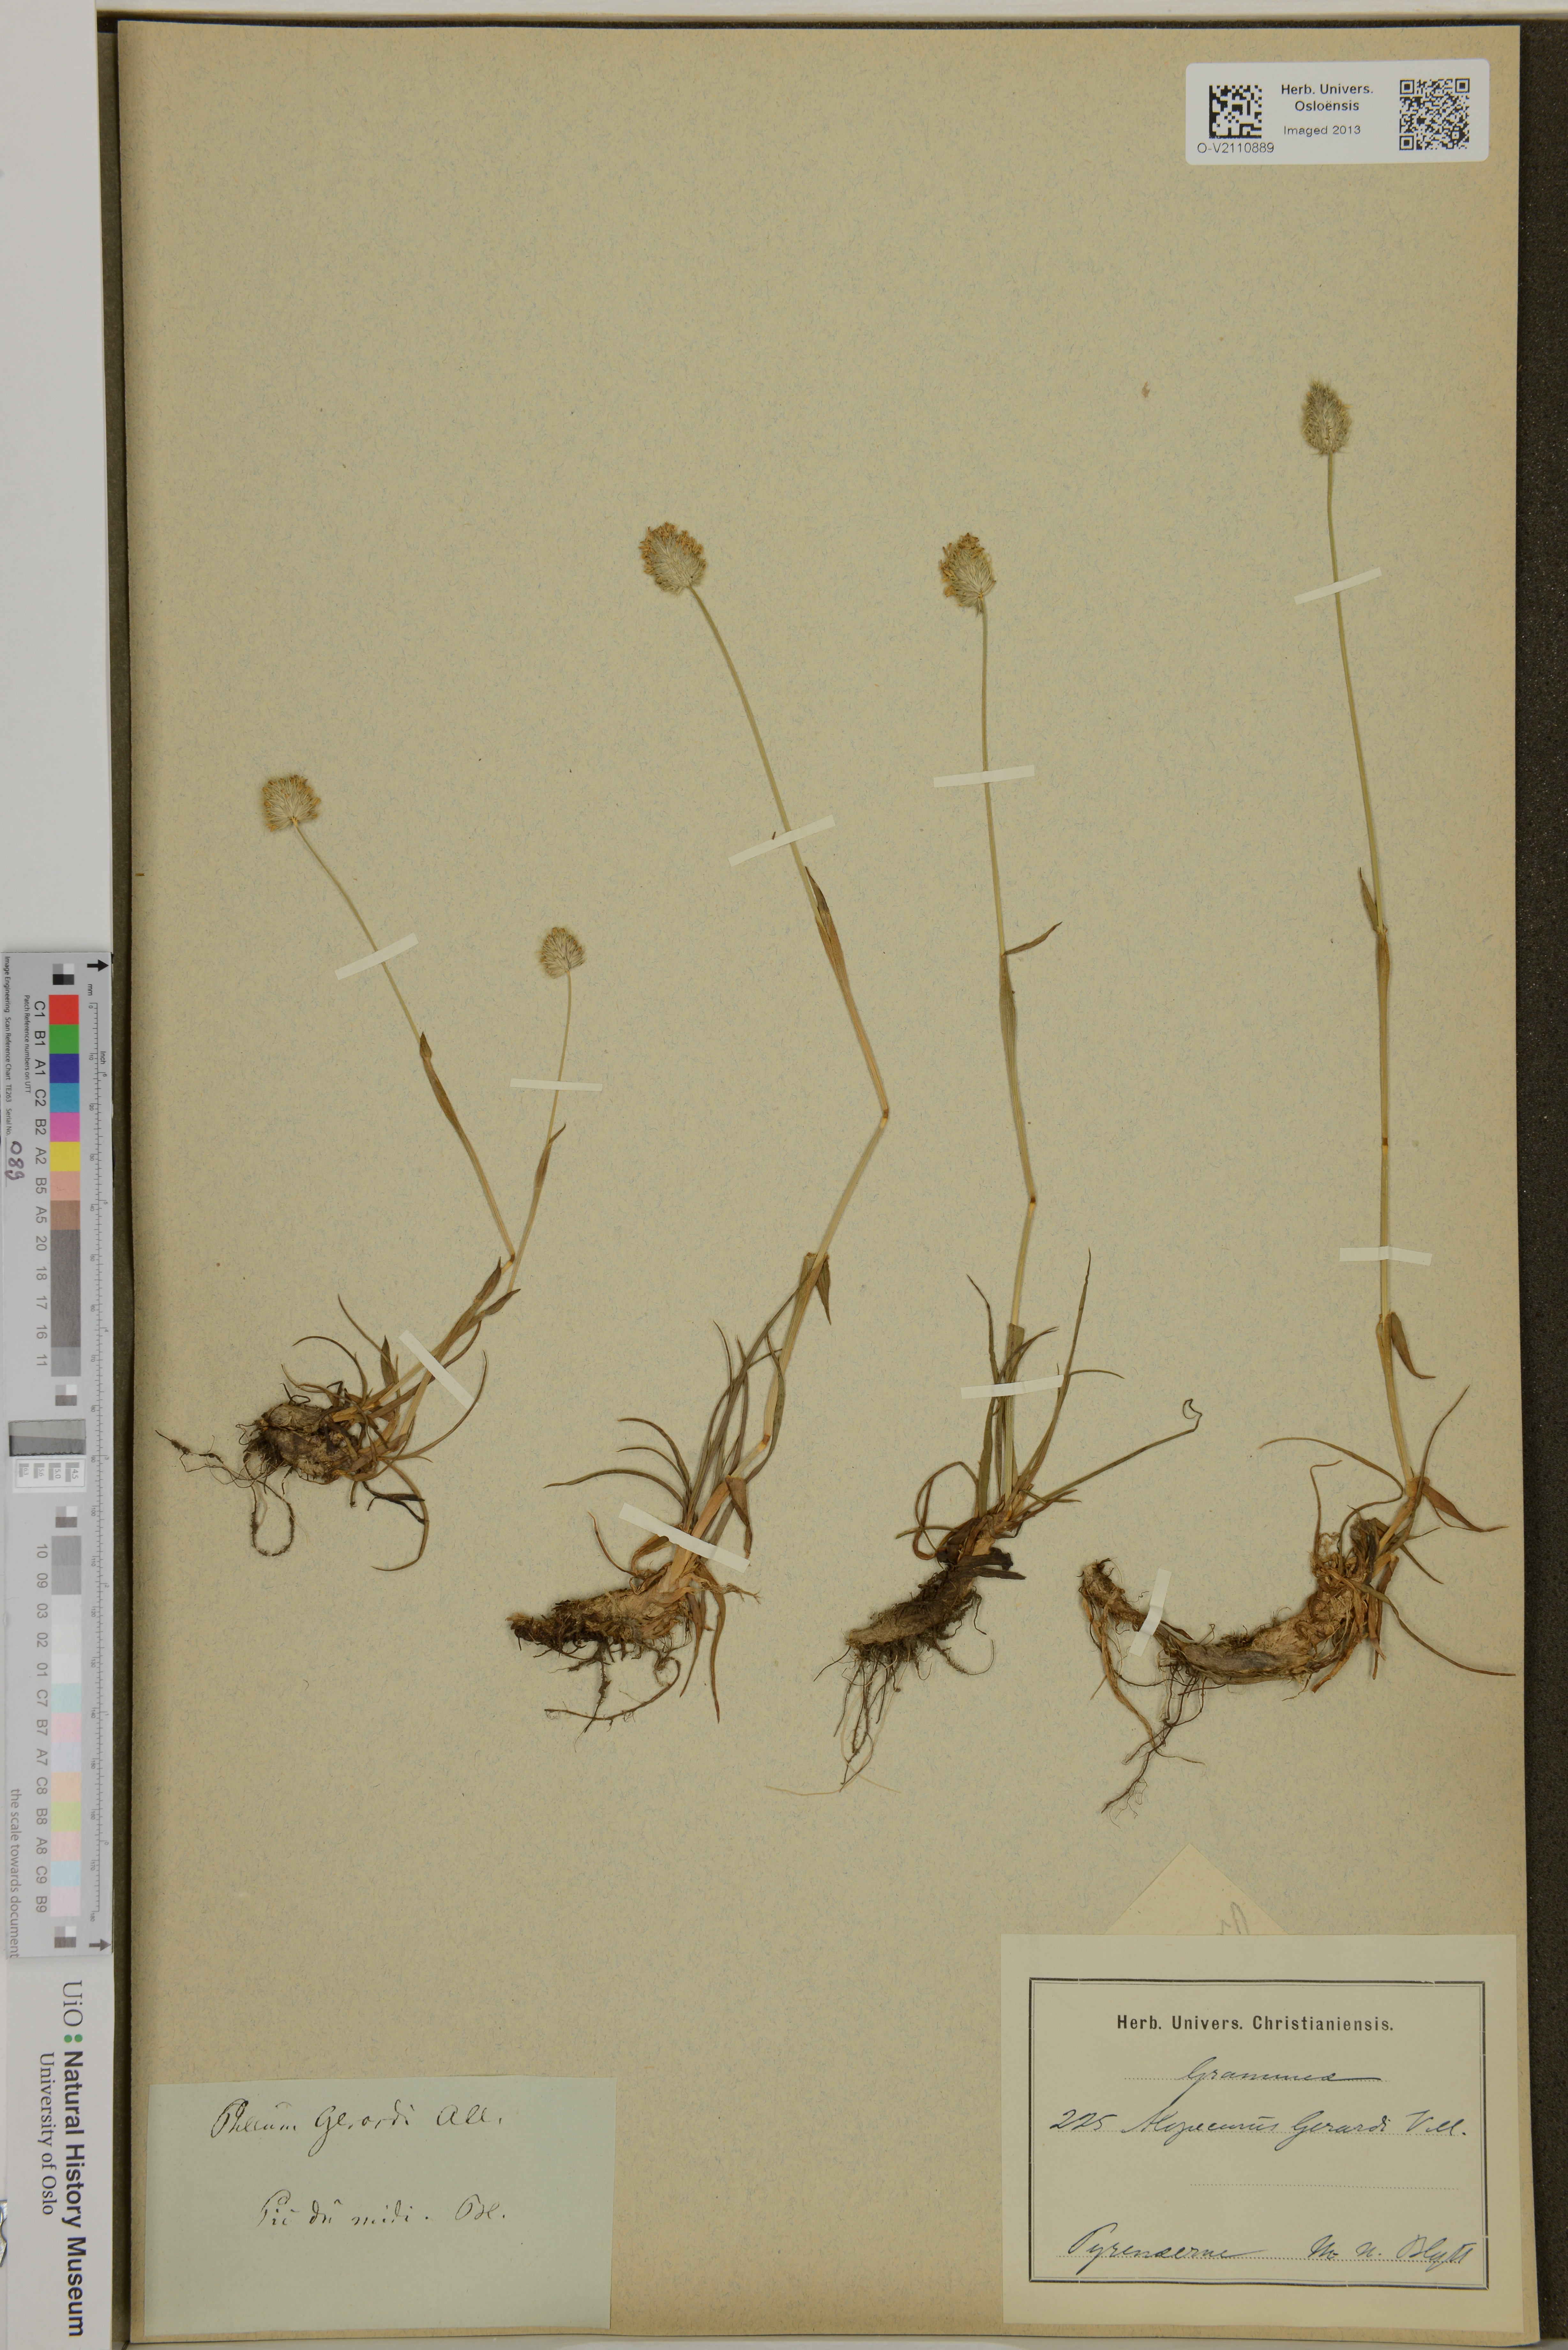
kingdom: Plantae
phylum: Tracheophyta
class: Liliopsida
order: Poales
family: Poaceae
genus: Alopecurus
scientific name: Alopecurus gerardii
